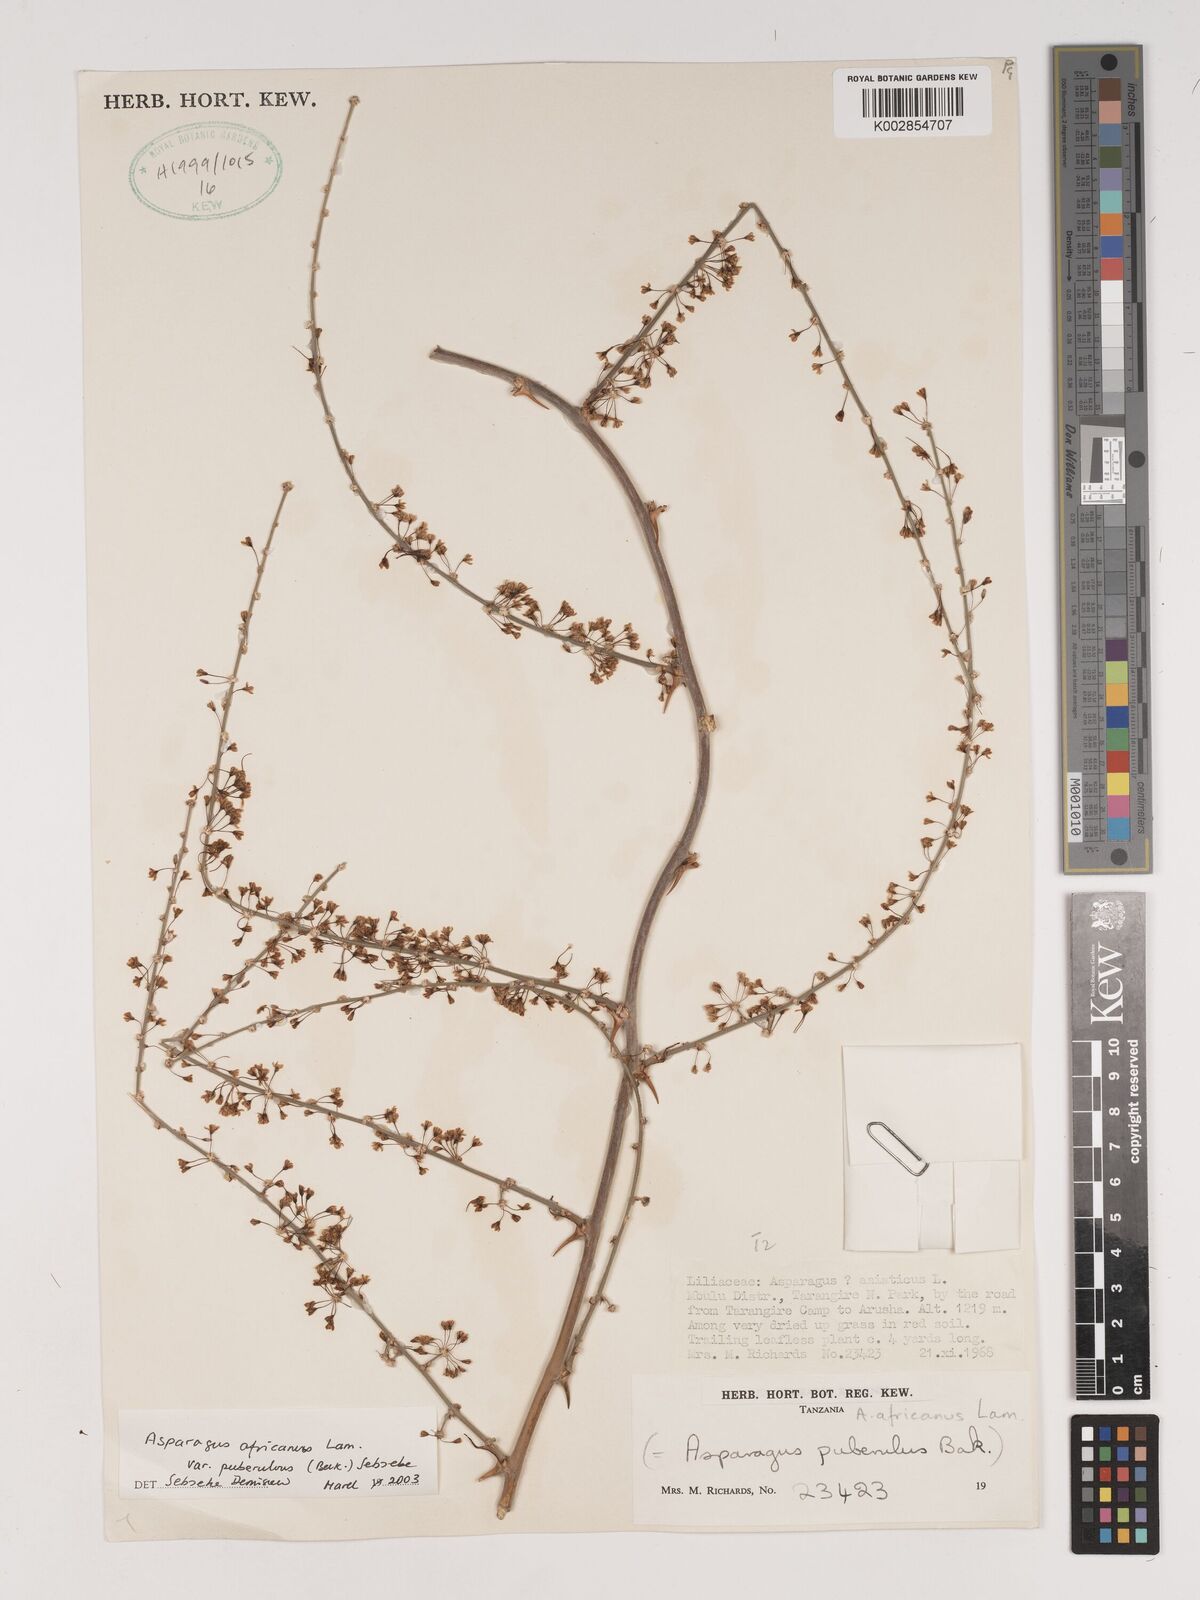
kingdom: Plantae
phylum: Tracheophyta
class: Liliopsida
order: Asparagales
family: Asparagaceae
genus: Asparagus
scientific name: Asparagus africanus
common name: Asparagus-fern
